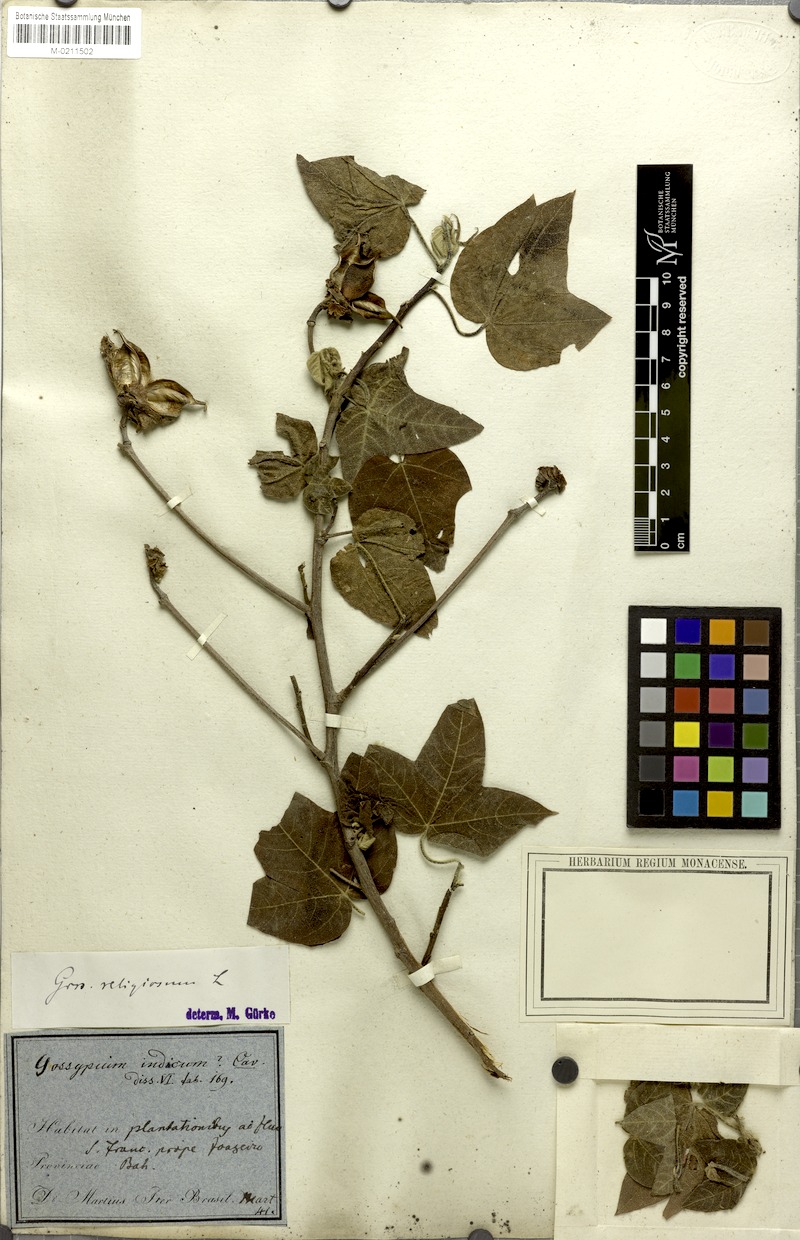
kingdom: Plantae
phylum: Tracheophyta
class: Magnoliopsida
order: Malvales
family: Malvaceae
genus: Gossypium
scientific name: Gossypium hirsutum
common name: Cotton
